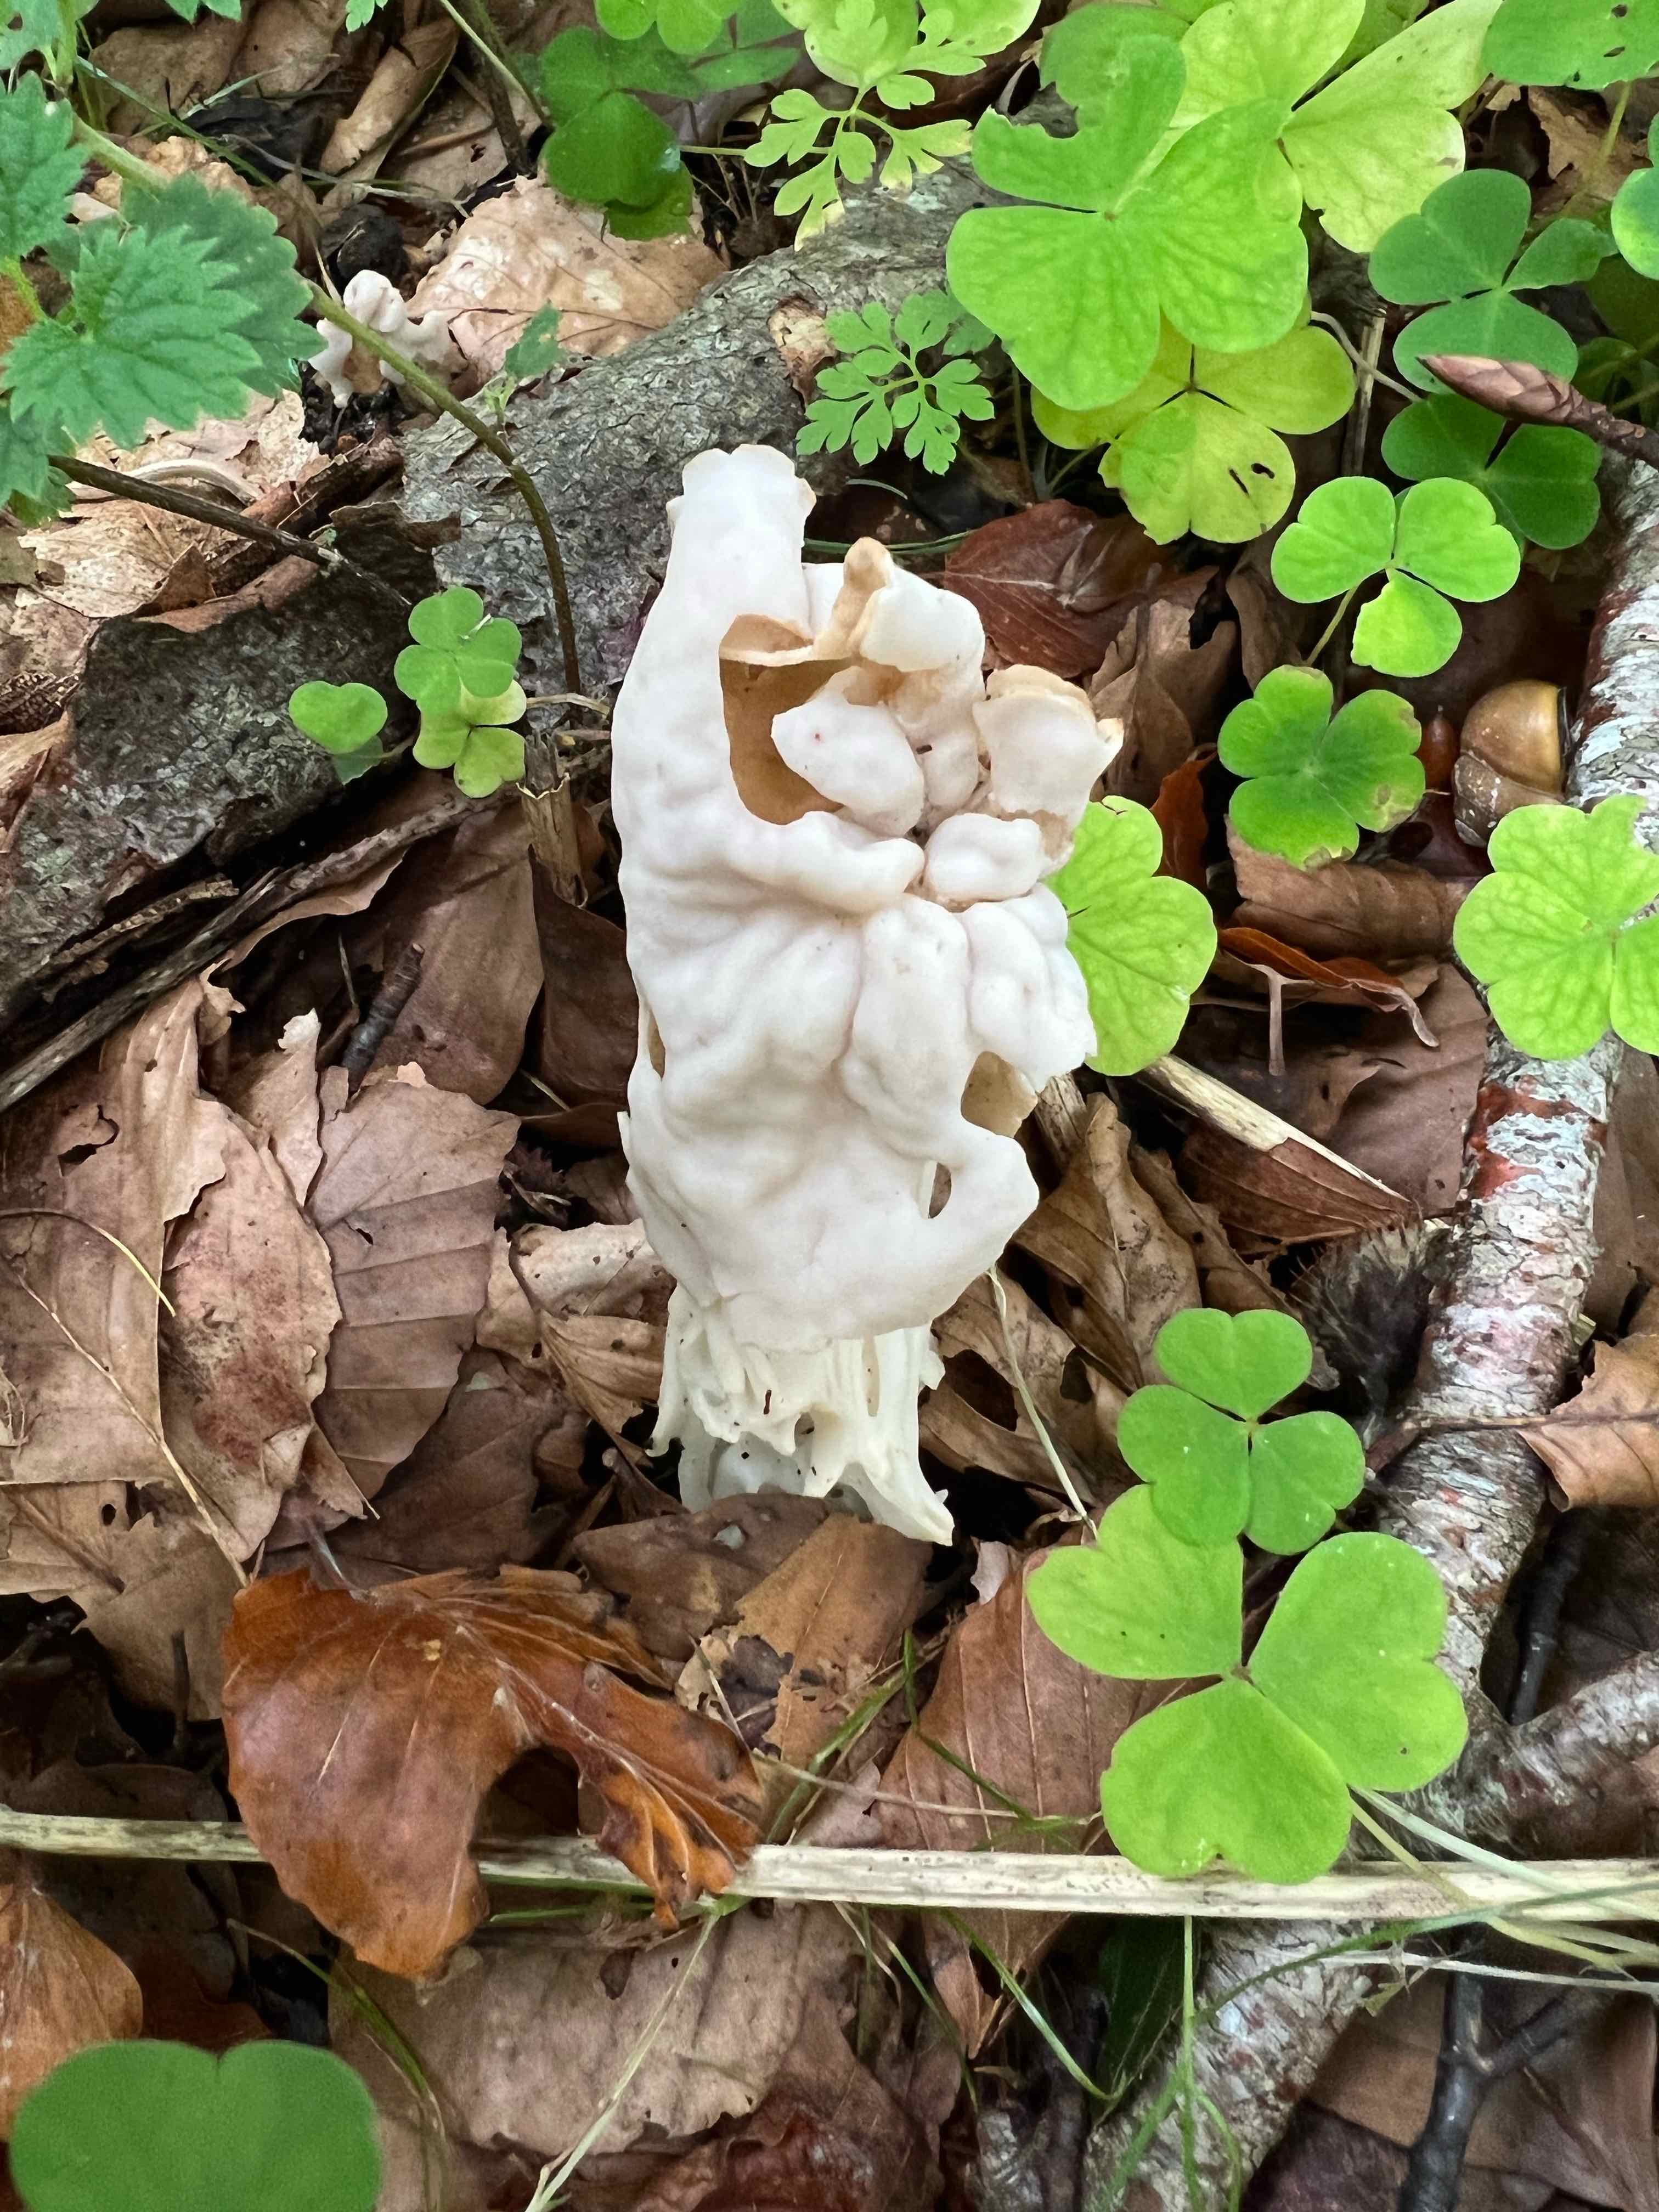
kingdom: Fungi
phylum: Ascomycota
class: Pezizomycetes
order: Pezizales
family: Helvellaceae
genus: Helvella
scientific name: Helvella crispa
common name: kruset foldhat
